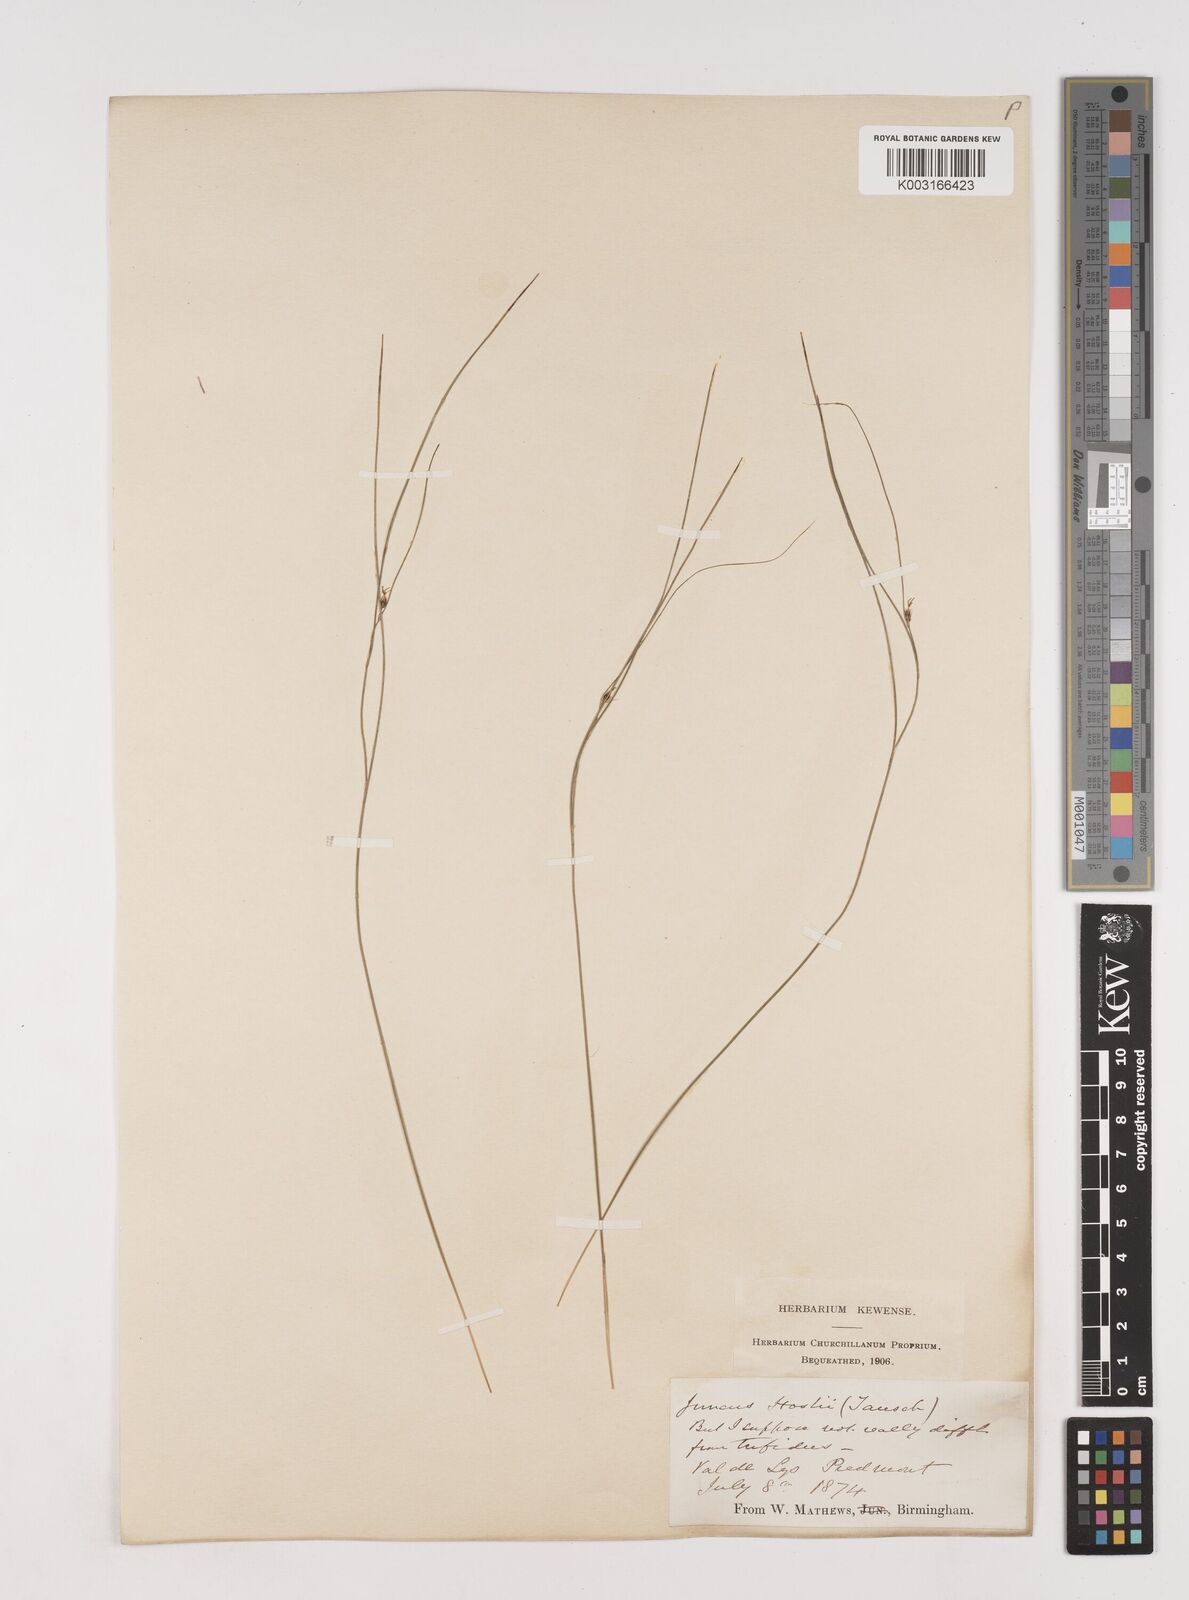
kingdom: Plantae
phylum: Tracheophyta
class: Liliopsida
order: Poales
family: Juncaceae
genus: Oreojuncus
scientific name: Oreojuncus trifidus
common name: Highland rush
